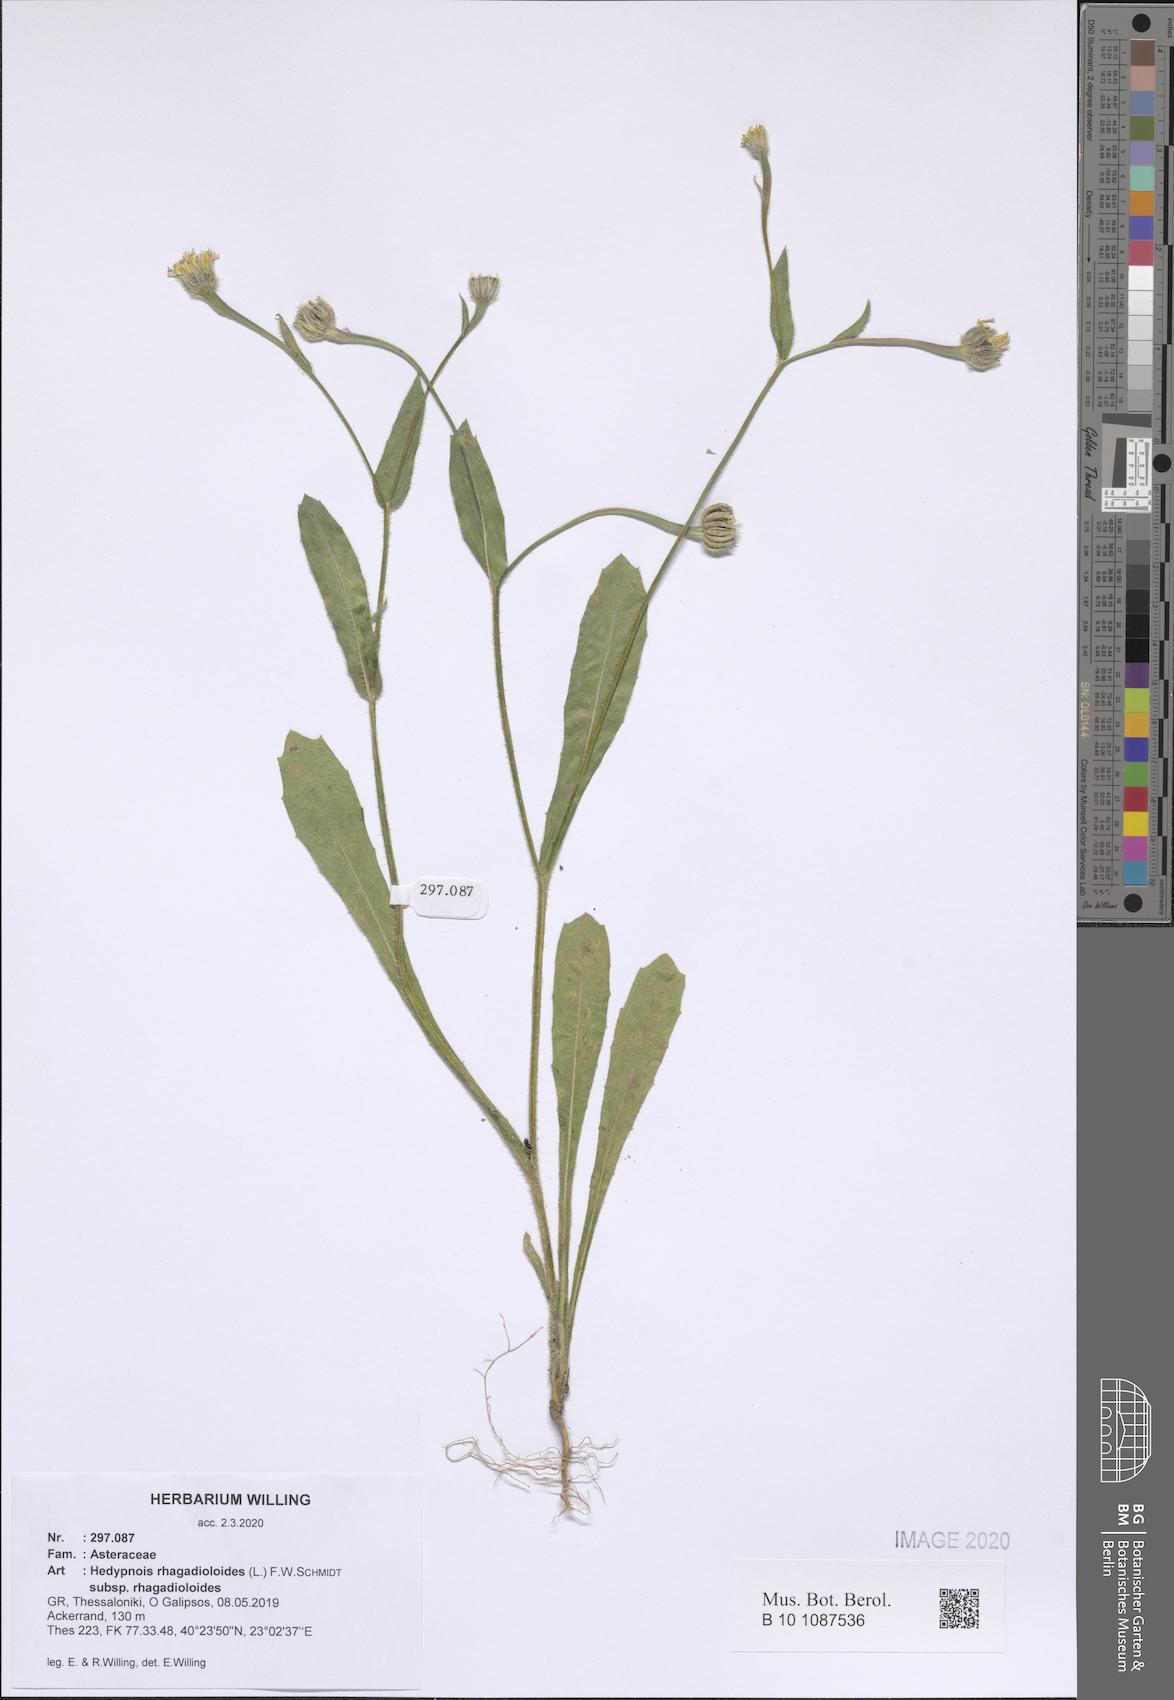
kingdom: Plantae
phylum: Tracheophyta
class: Magnoliopsida
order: Asterales
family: Asteraceae
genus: Hedypnois
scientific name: Hedypnois rhagadioloides
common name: Cretan weed
